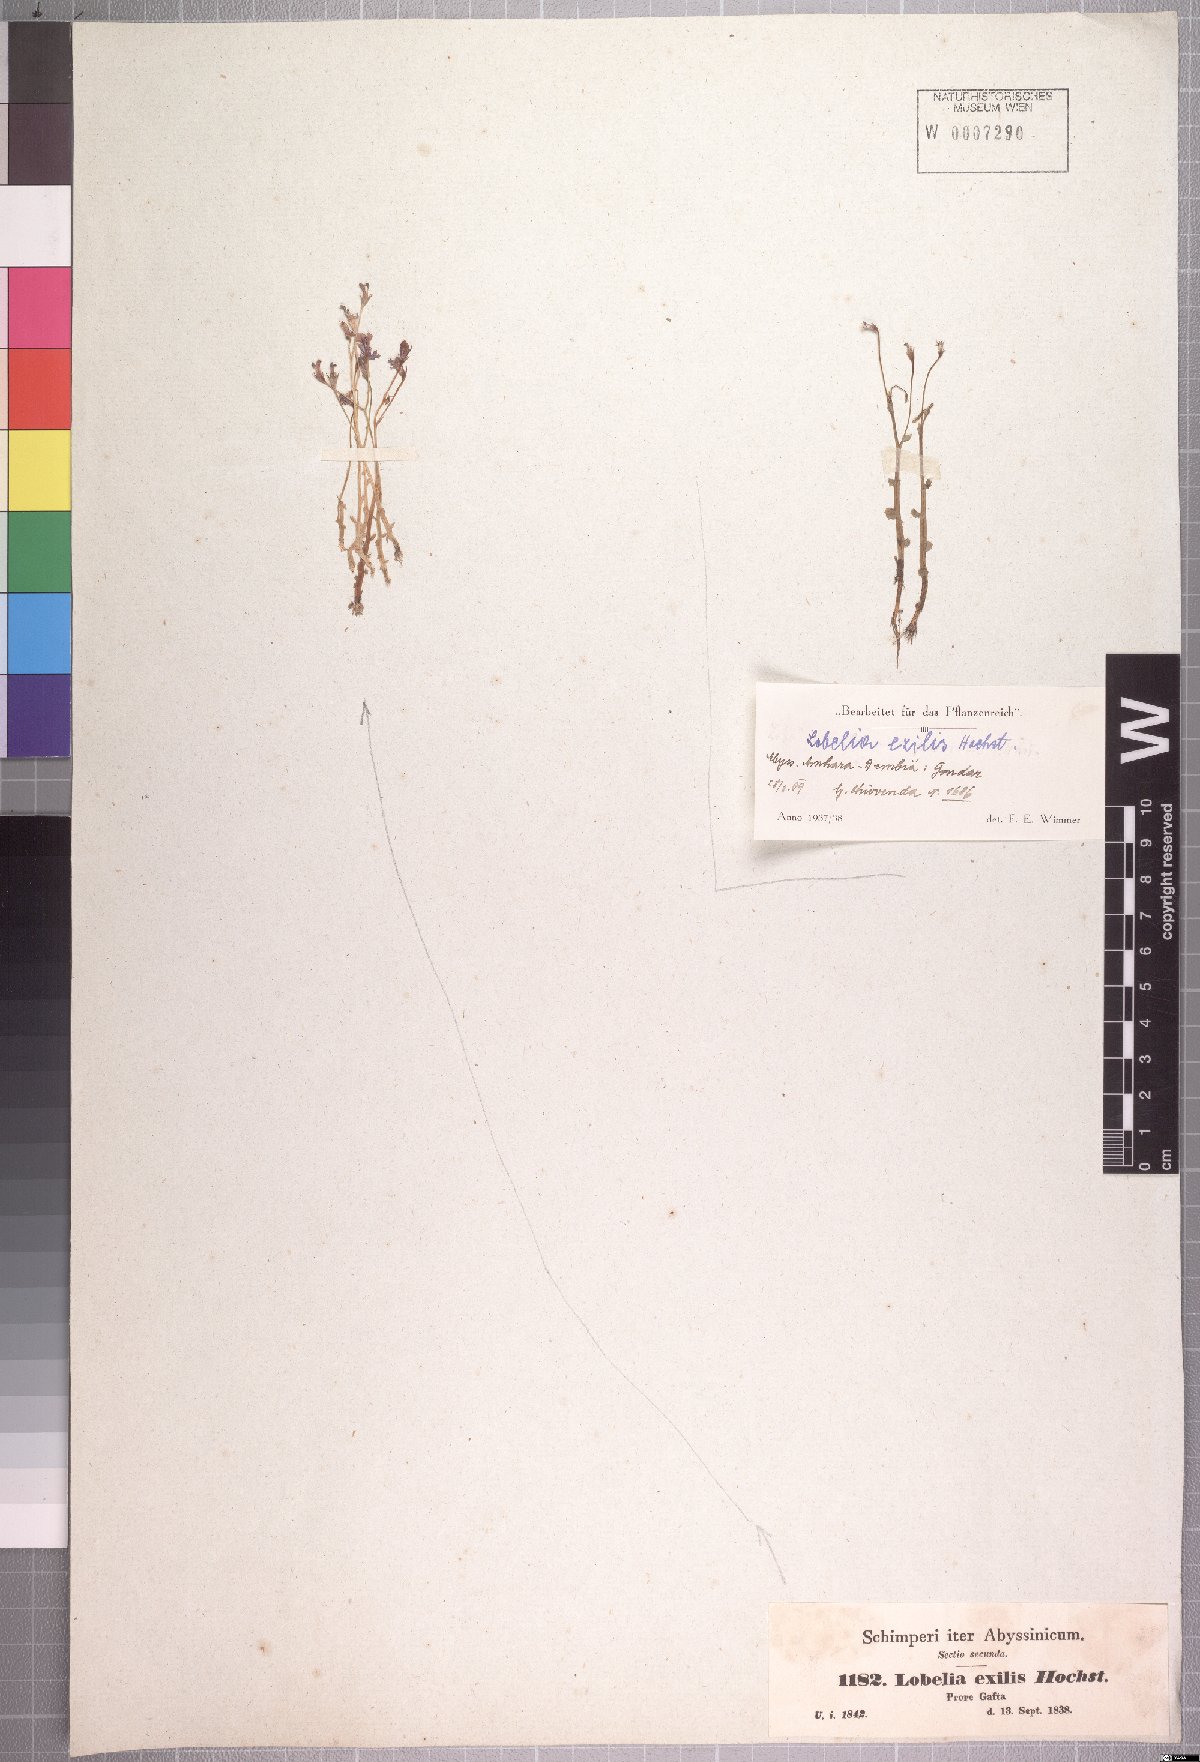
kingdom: Plantae
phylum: Tracheophyta
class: Magnoliopsida
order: Asterales
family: Campanulaceae
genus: Lobelia
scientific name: Lobelia exilis
